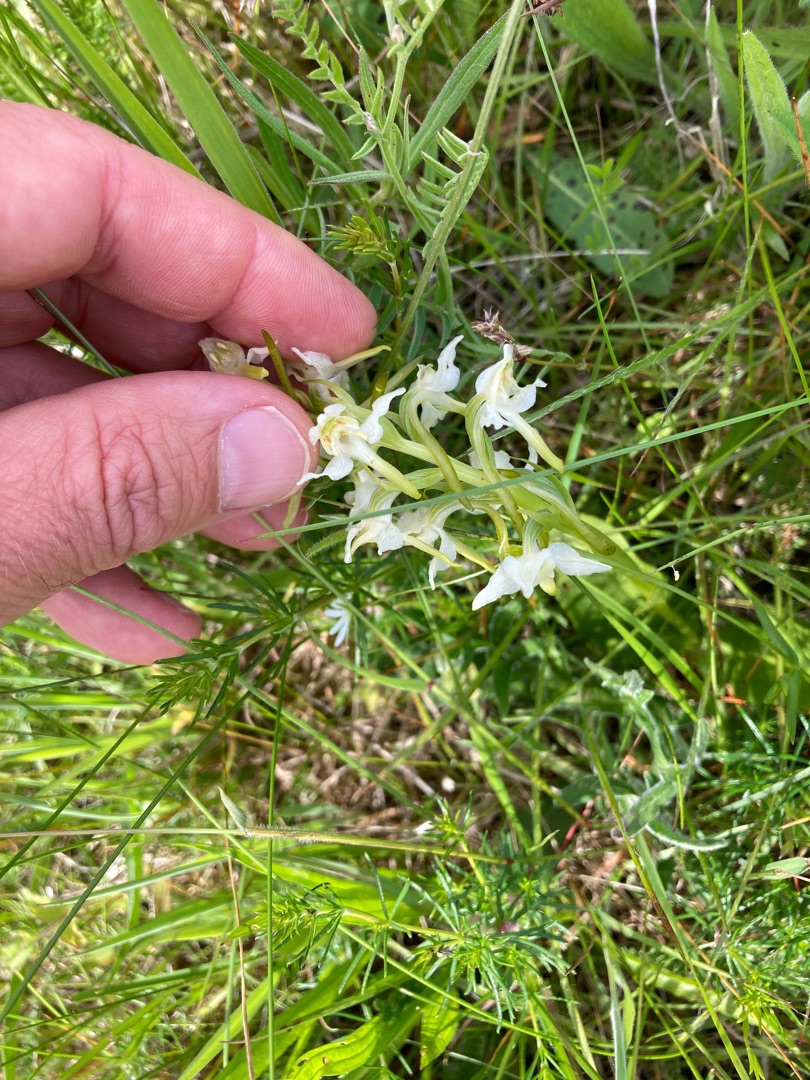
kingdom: Plantae
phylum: Tracheophyta
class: Liliopsida
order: Asparagales
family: Orchidaceae
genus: Platanthera
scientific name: Platanthera chlorantha
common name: Skov-gøgelilje
